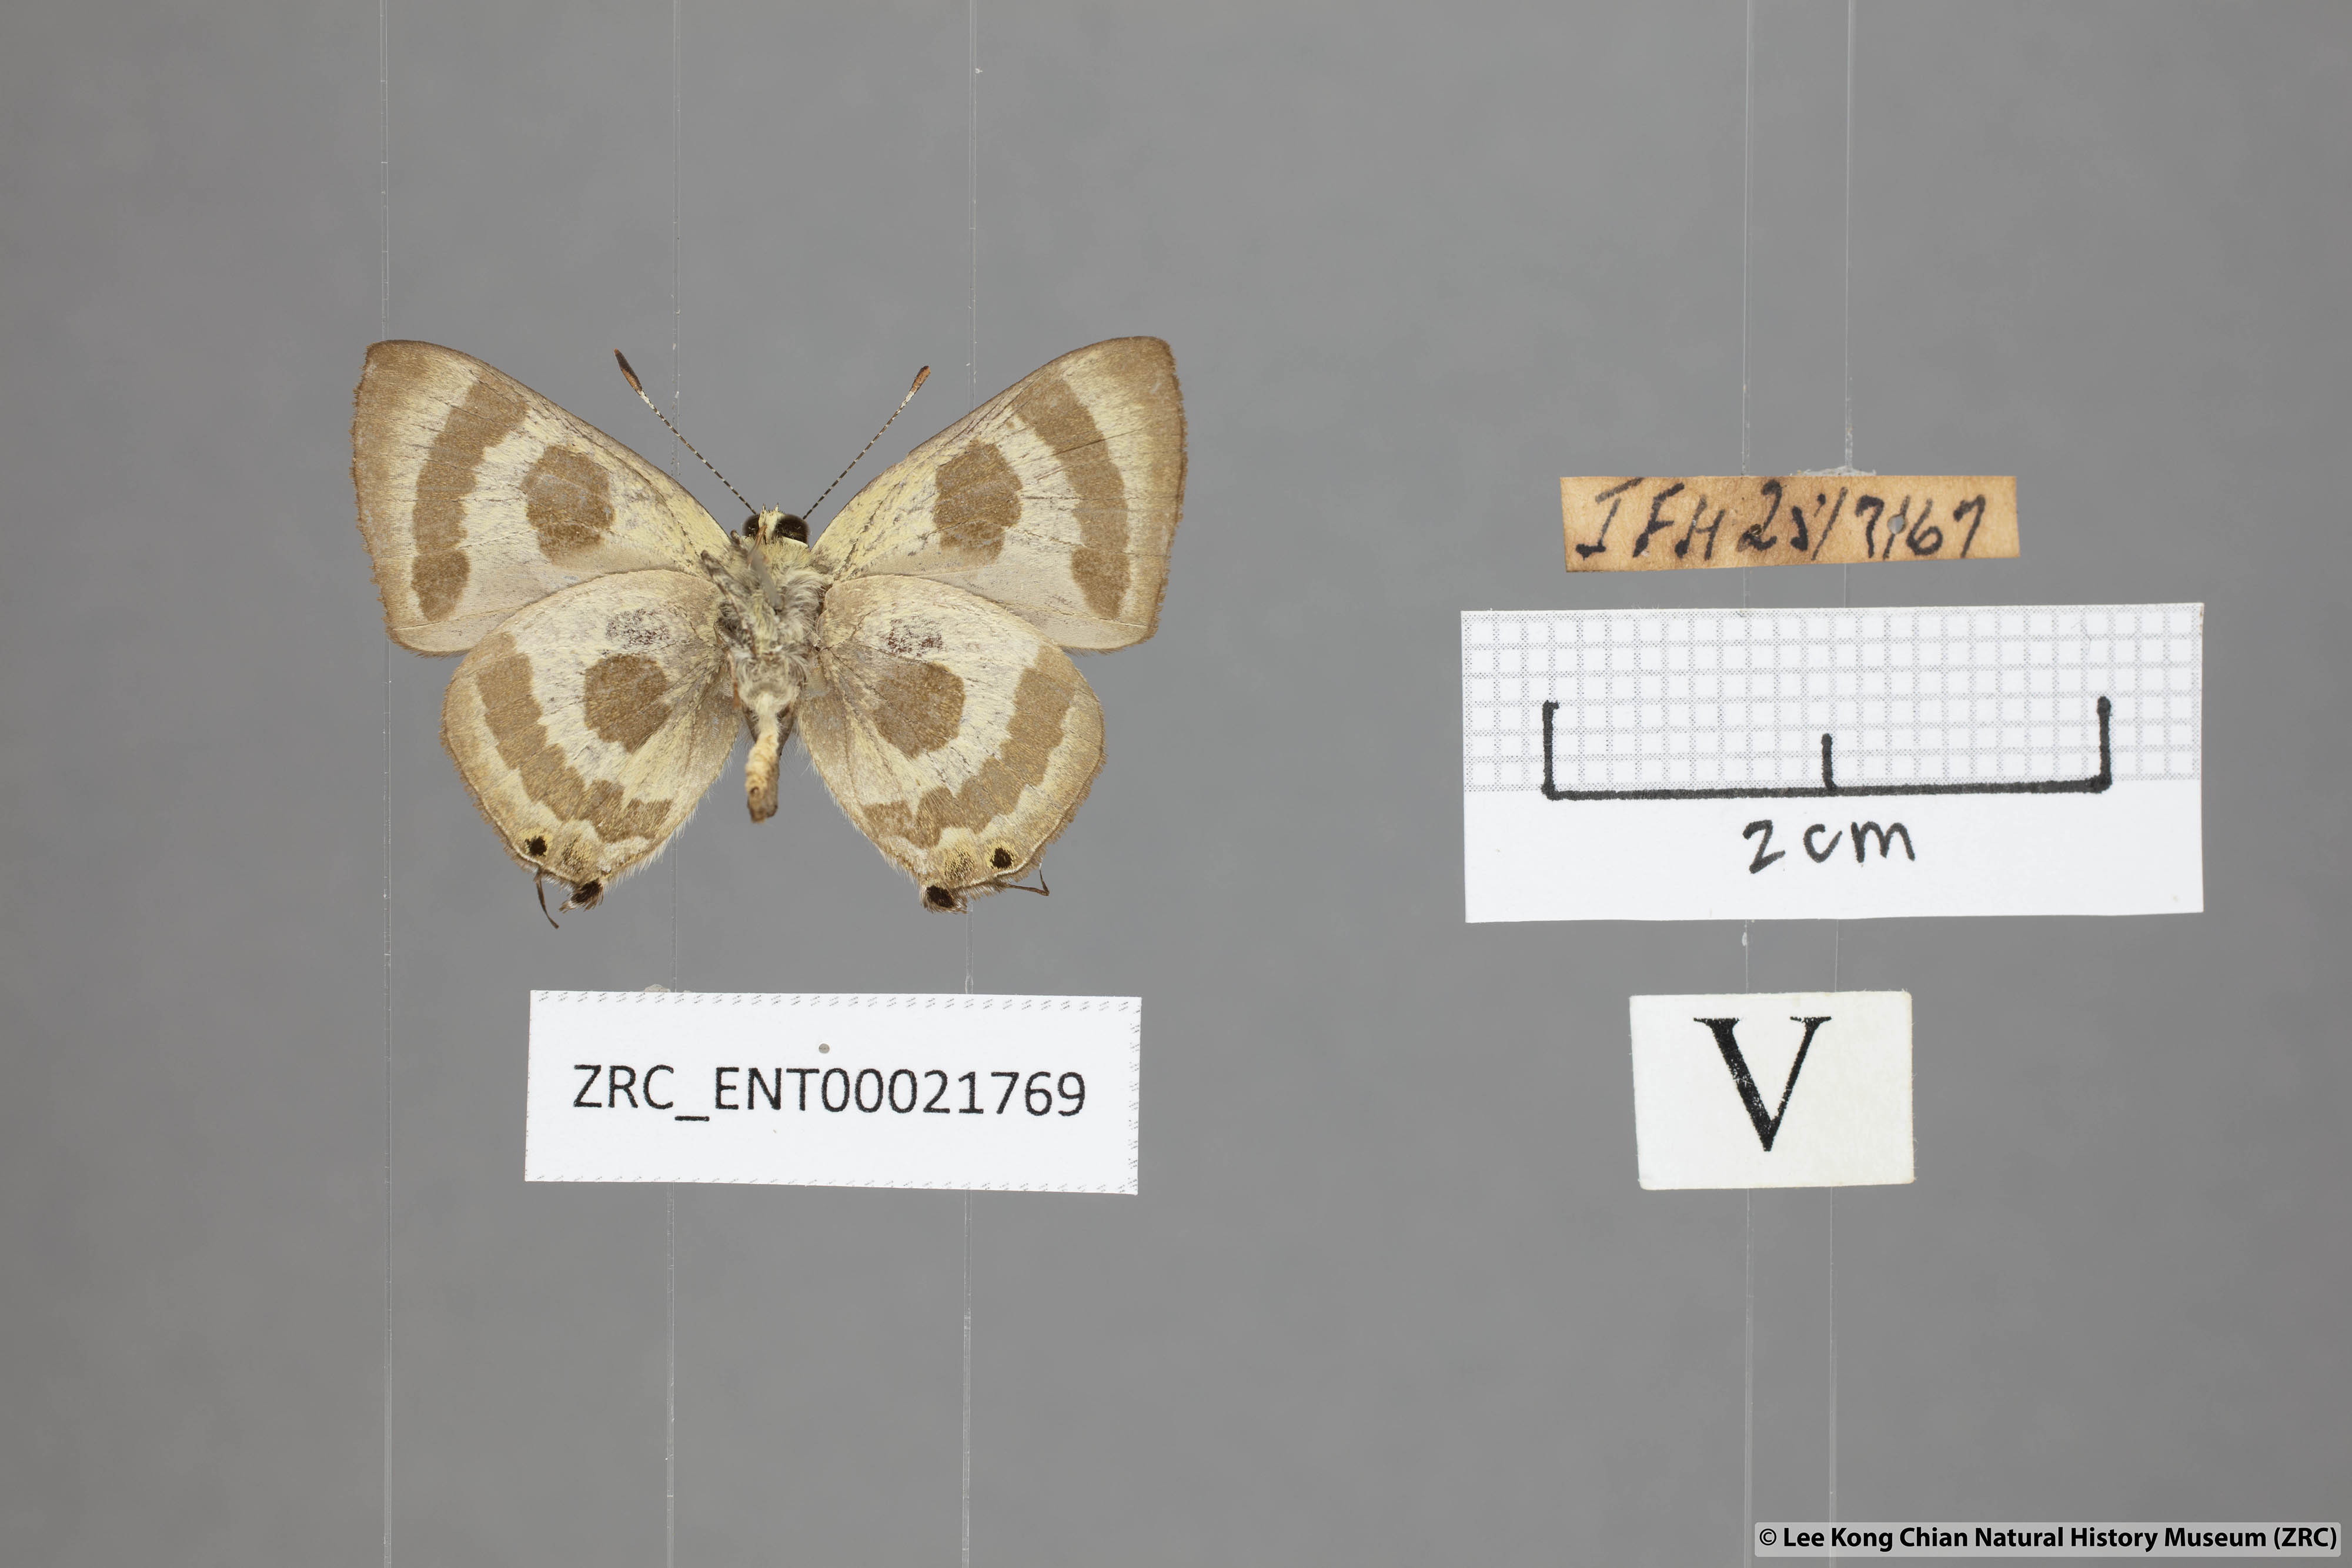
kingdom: Animalia
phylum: Arthropoda
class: Insecta
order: Lepidoptera
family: Lycaenidae
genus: Rapala
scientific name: Rapala
